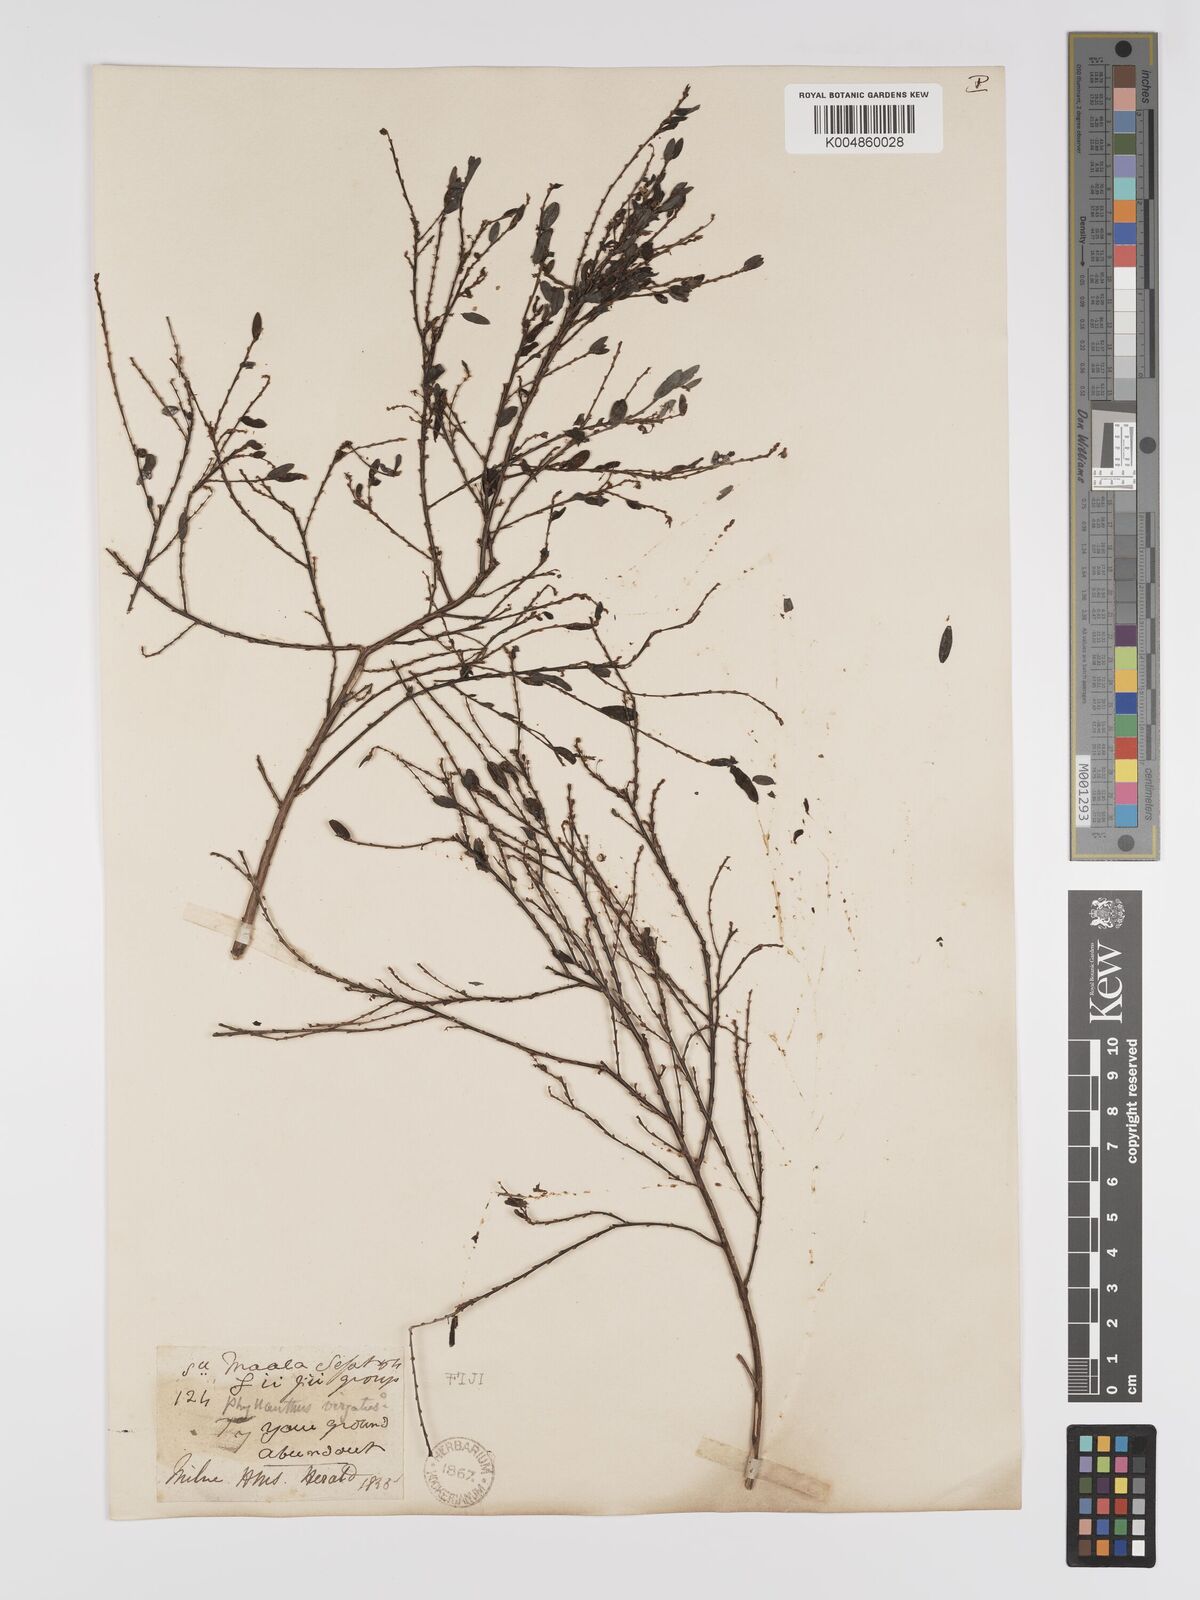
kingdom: Plantae
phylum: Tracheophyta
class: Magnoliopsida
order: Malpighiales
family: Phyllanthaceae
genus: Phyllanthus
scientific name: Phyllanthus
